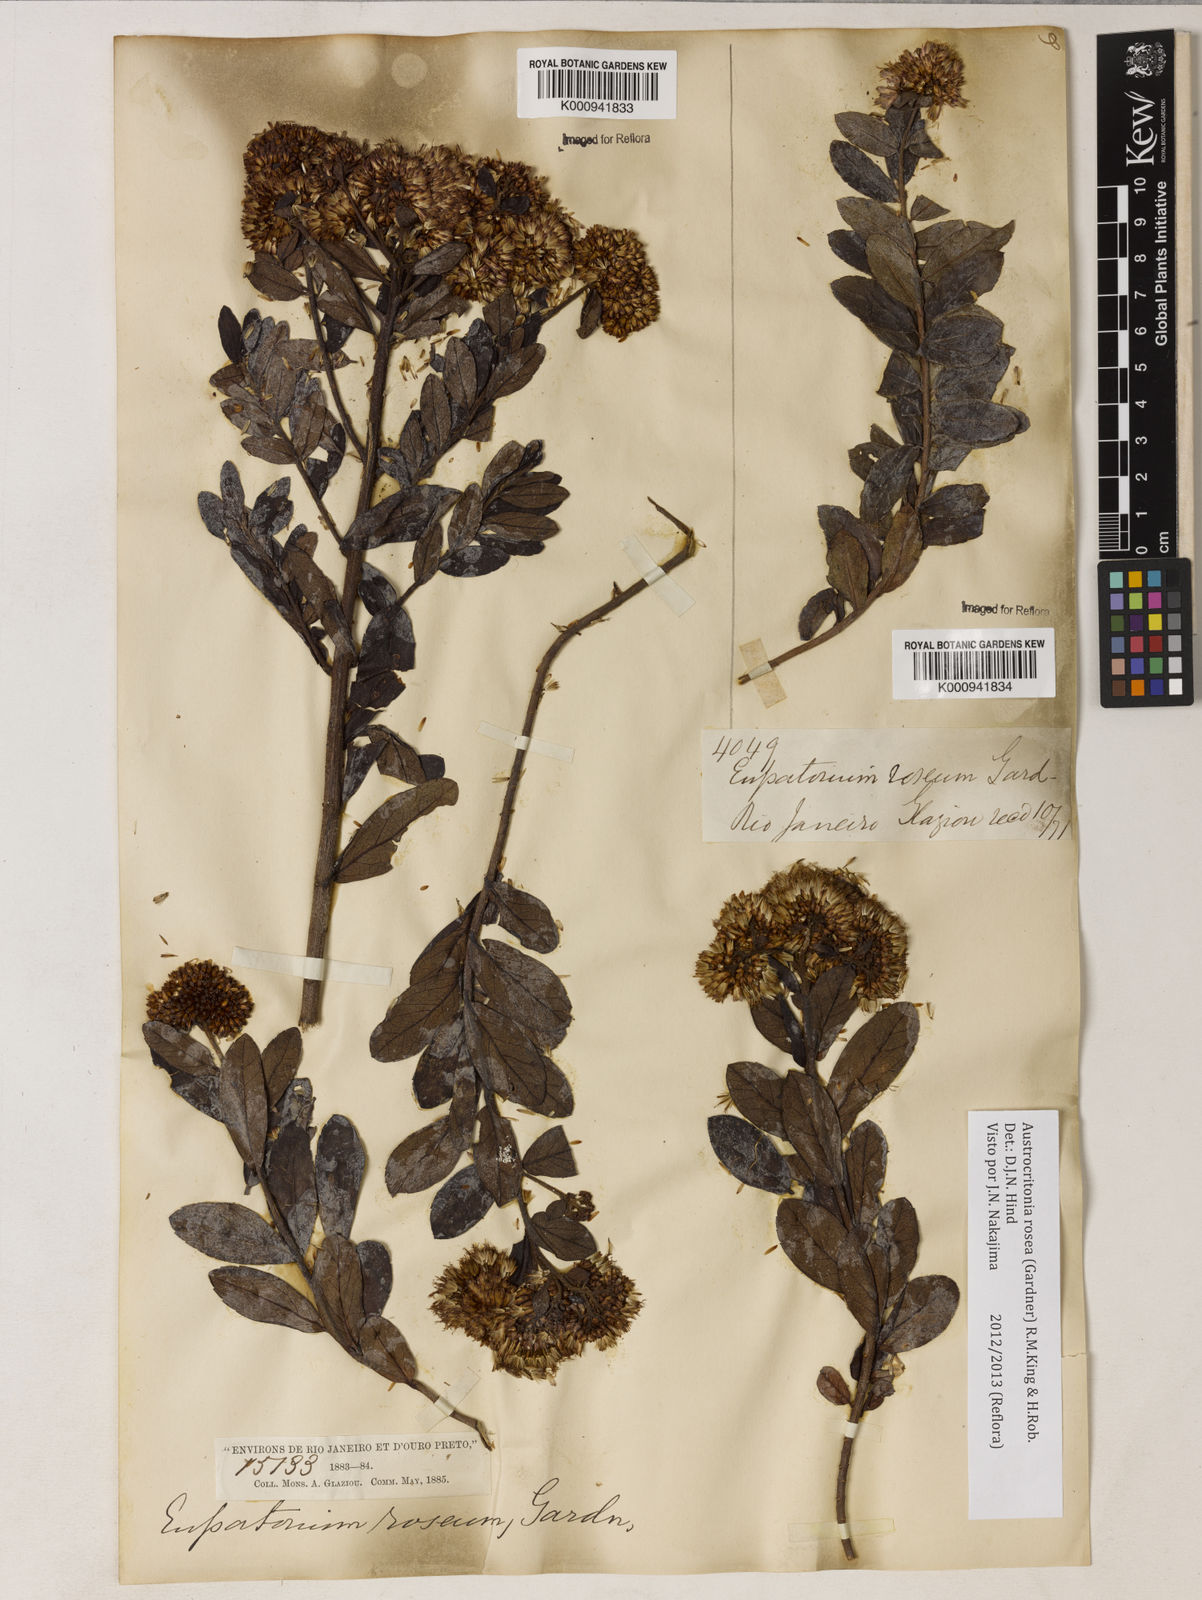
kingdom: Plantae
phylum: Tracheophyta
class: Magnoliopsida
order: Asterales
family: Asteraceae
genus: Austrocritonia
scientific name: Austrocritonia rosea
